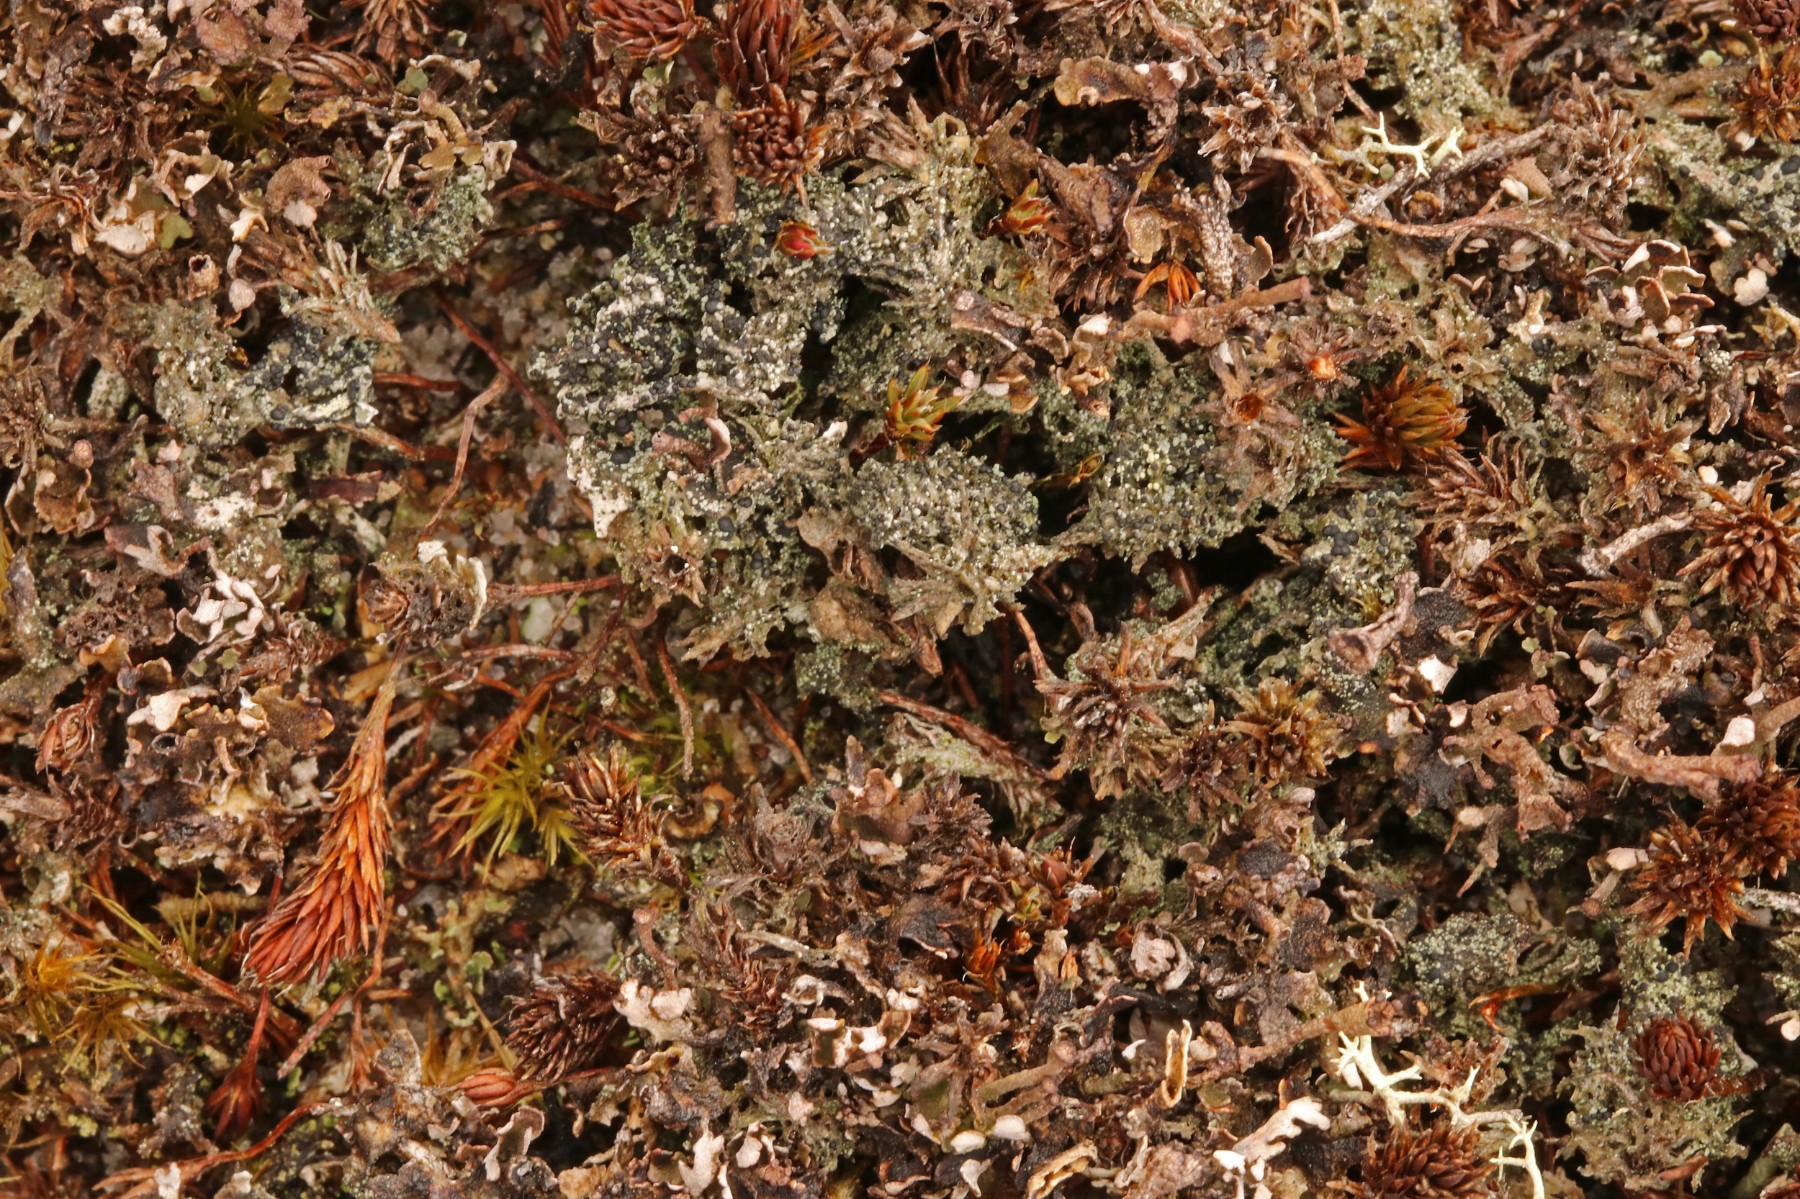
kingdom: Fungi
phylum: Ascomycota
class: Lecanoromycetes
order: Lecanorales
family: Byssolomataceae
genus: Micarea
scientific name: Micarea lignaria
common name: tørve-knaplav
